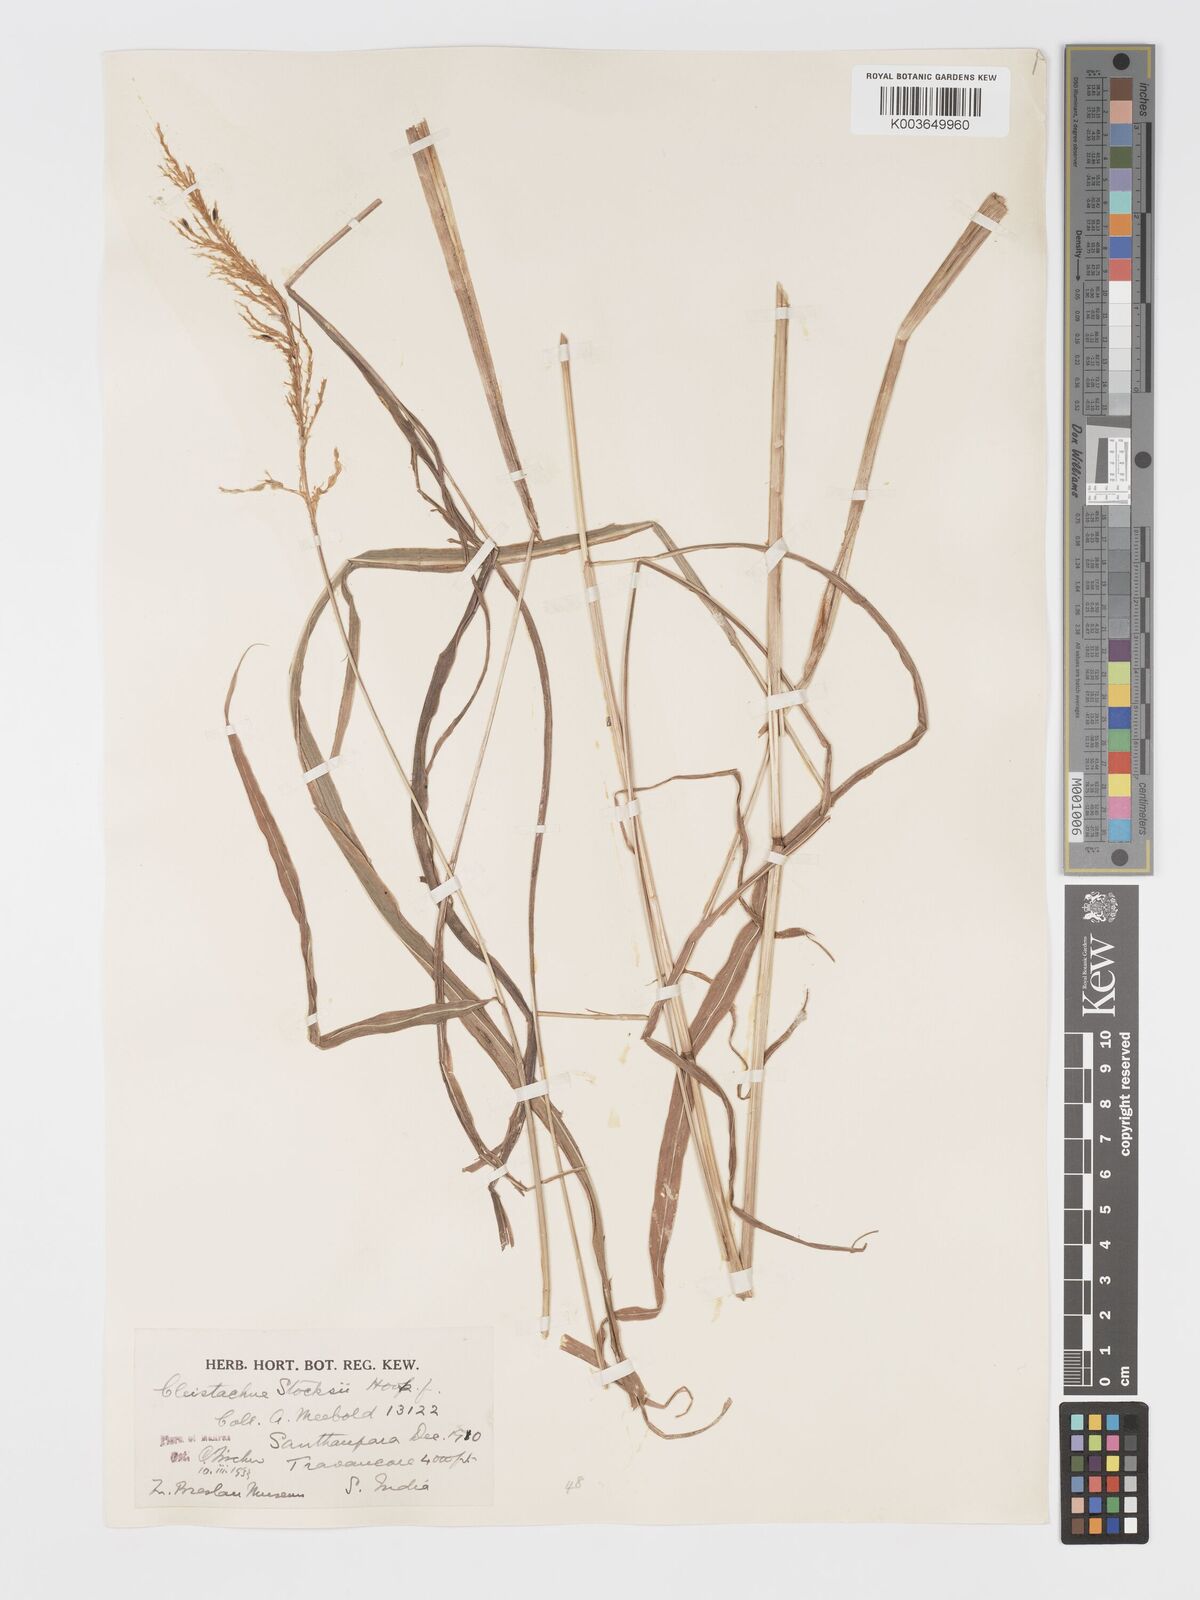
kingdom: Plantae
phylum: Tracheophyta
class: Liliopsida
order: Poales
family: Poaceae
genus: Cleistachne
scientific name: Cleistachne sorghoides
